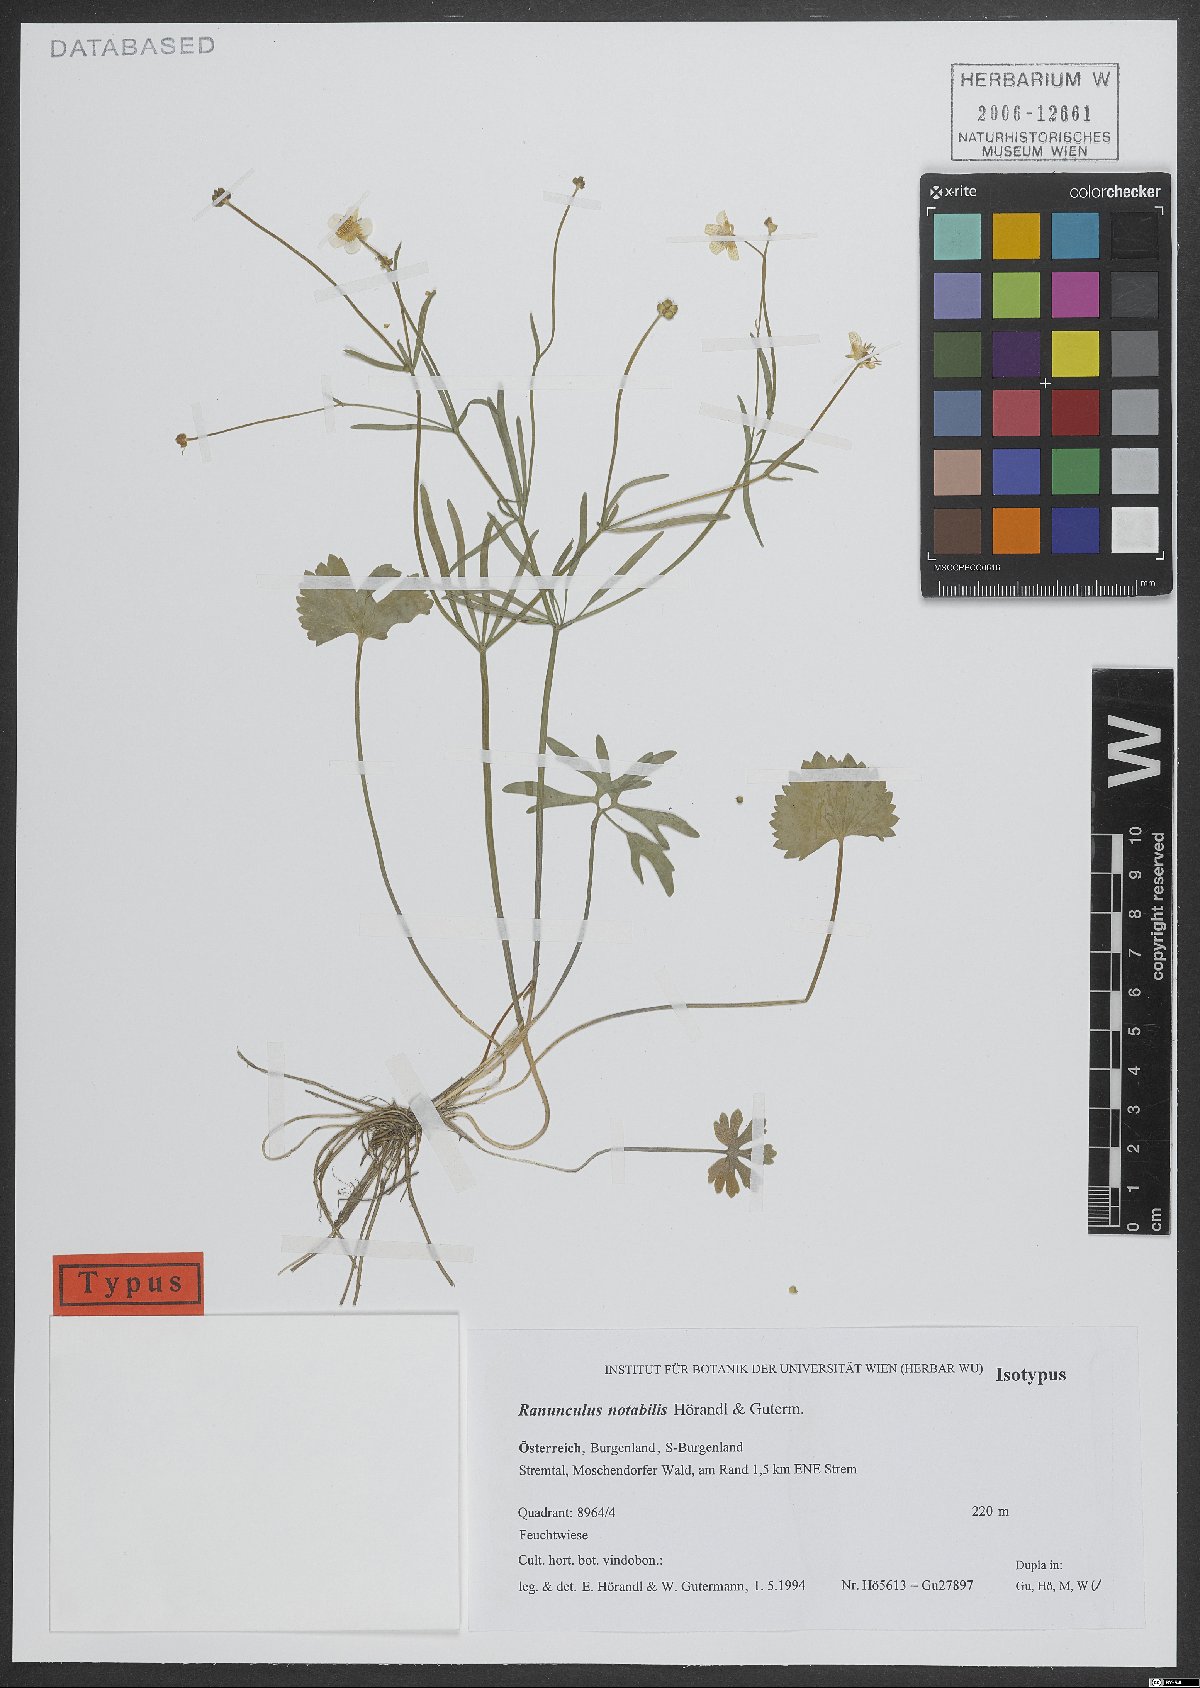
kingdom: Plantae
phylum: Tracheophyta
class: Magnoliopsida
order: Ranunculales
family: Ranunculaceae
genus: Ranunculus
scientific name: Ranunculus notabilis
